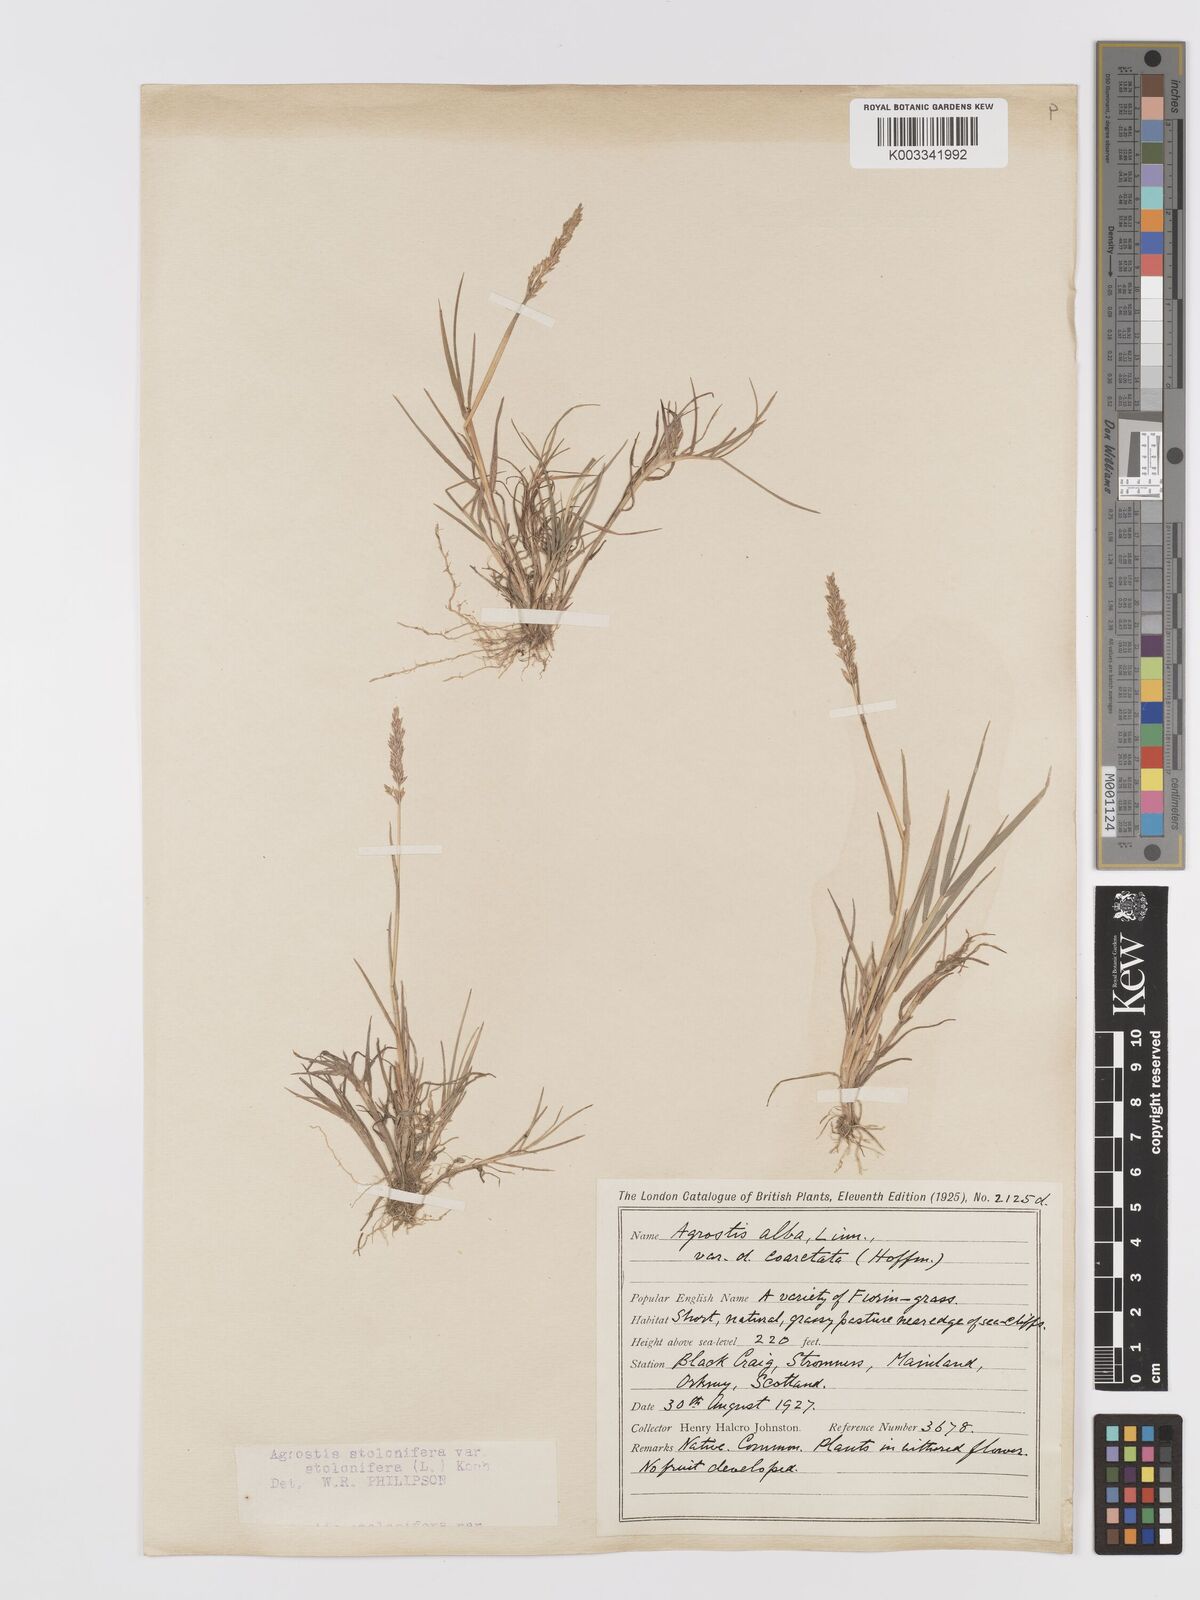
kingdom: Plantae
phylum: Tracheophyta
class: Liliopsida
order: Poales
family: Poaceae
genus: Agrostis
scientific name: Agrostis stolonifera
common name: Creeping bentgrass
